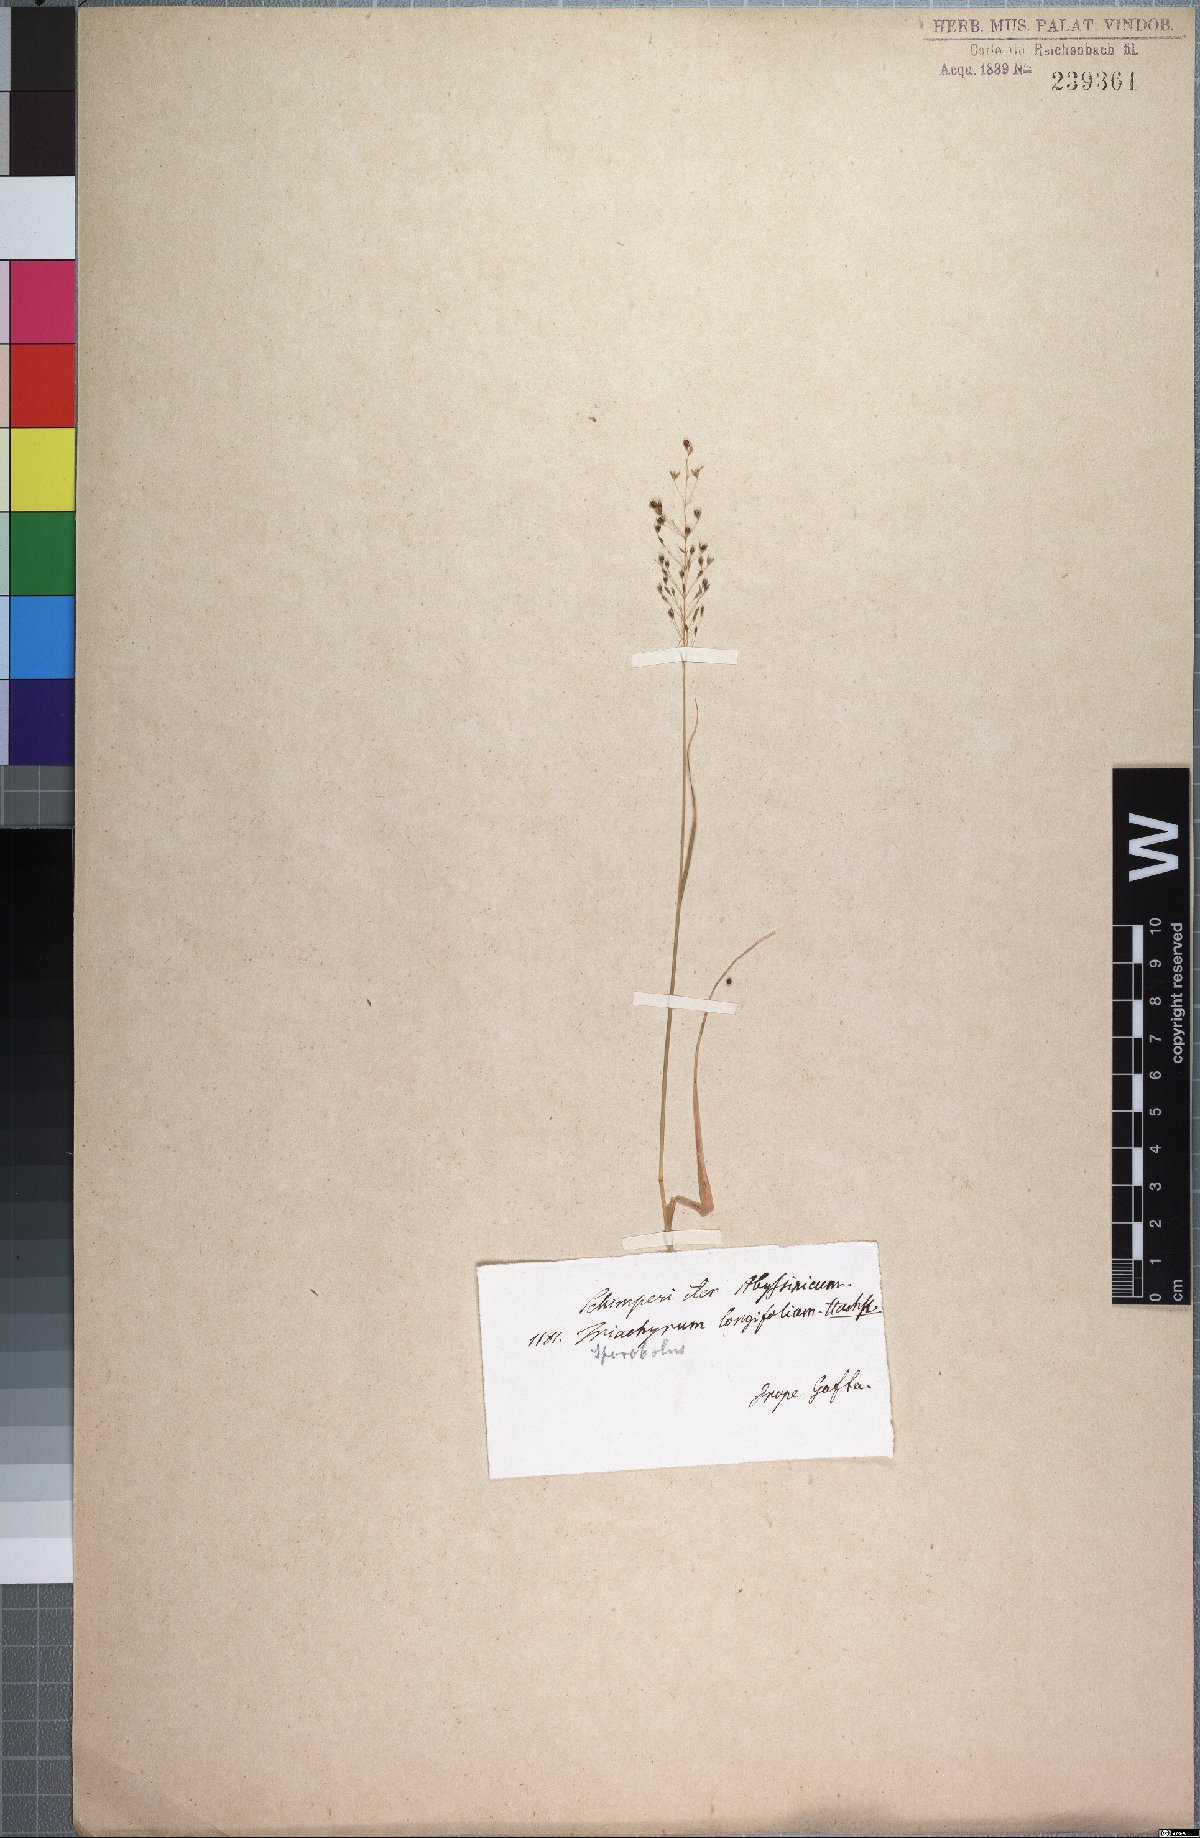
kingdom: Plantae
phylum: Tracheophyta
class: Liliopsida
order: Poales
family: Poaceae
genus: Sporobolus
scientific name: Sporobolus panicoides
